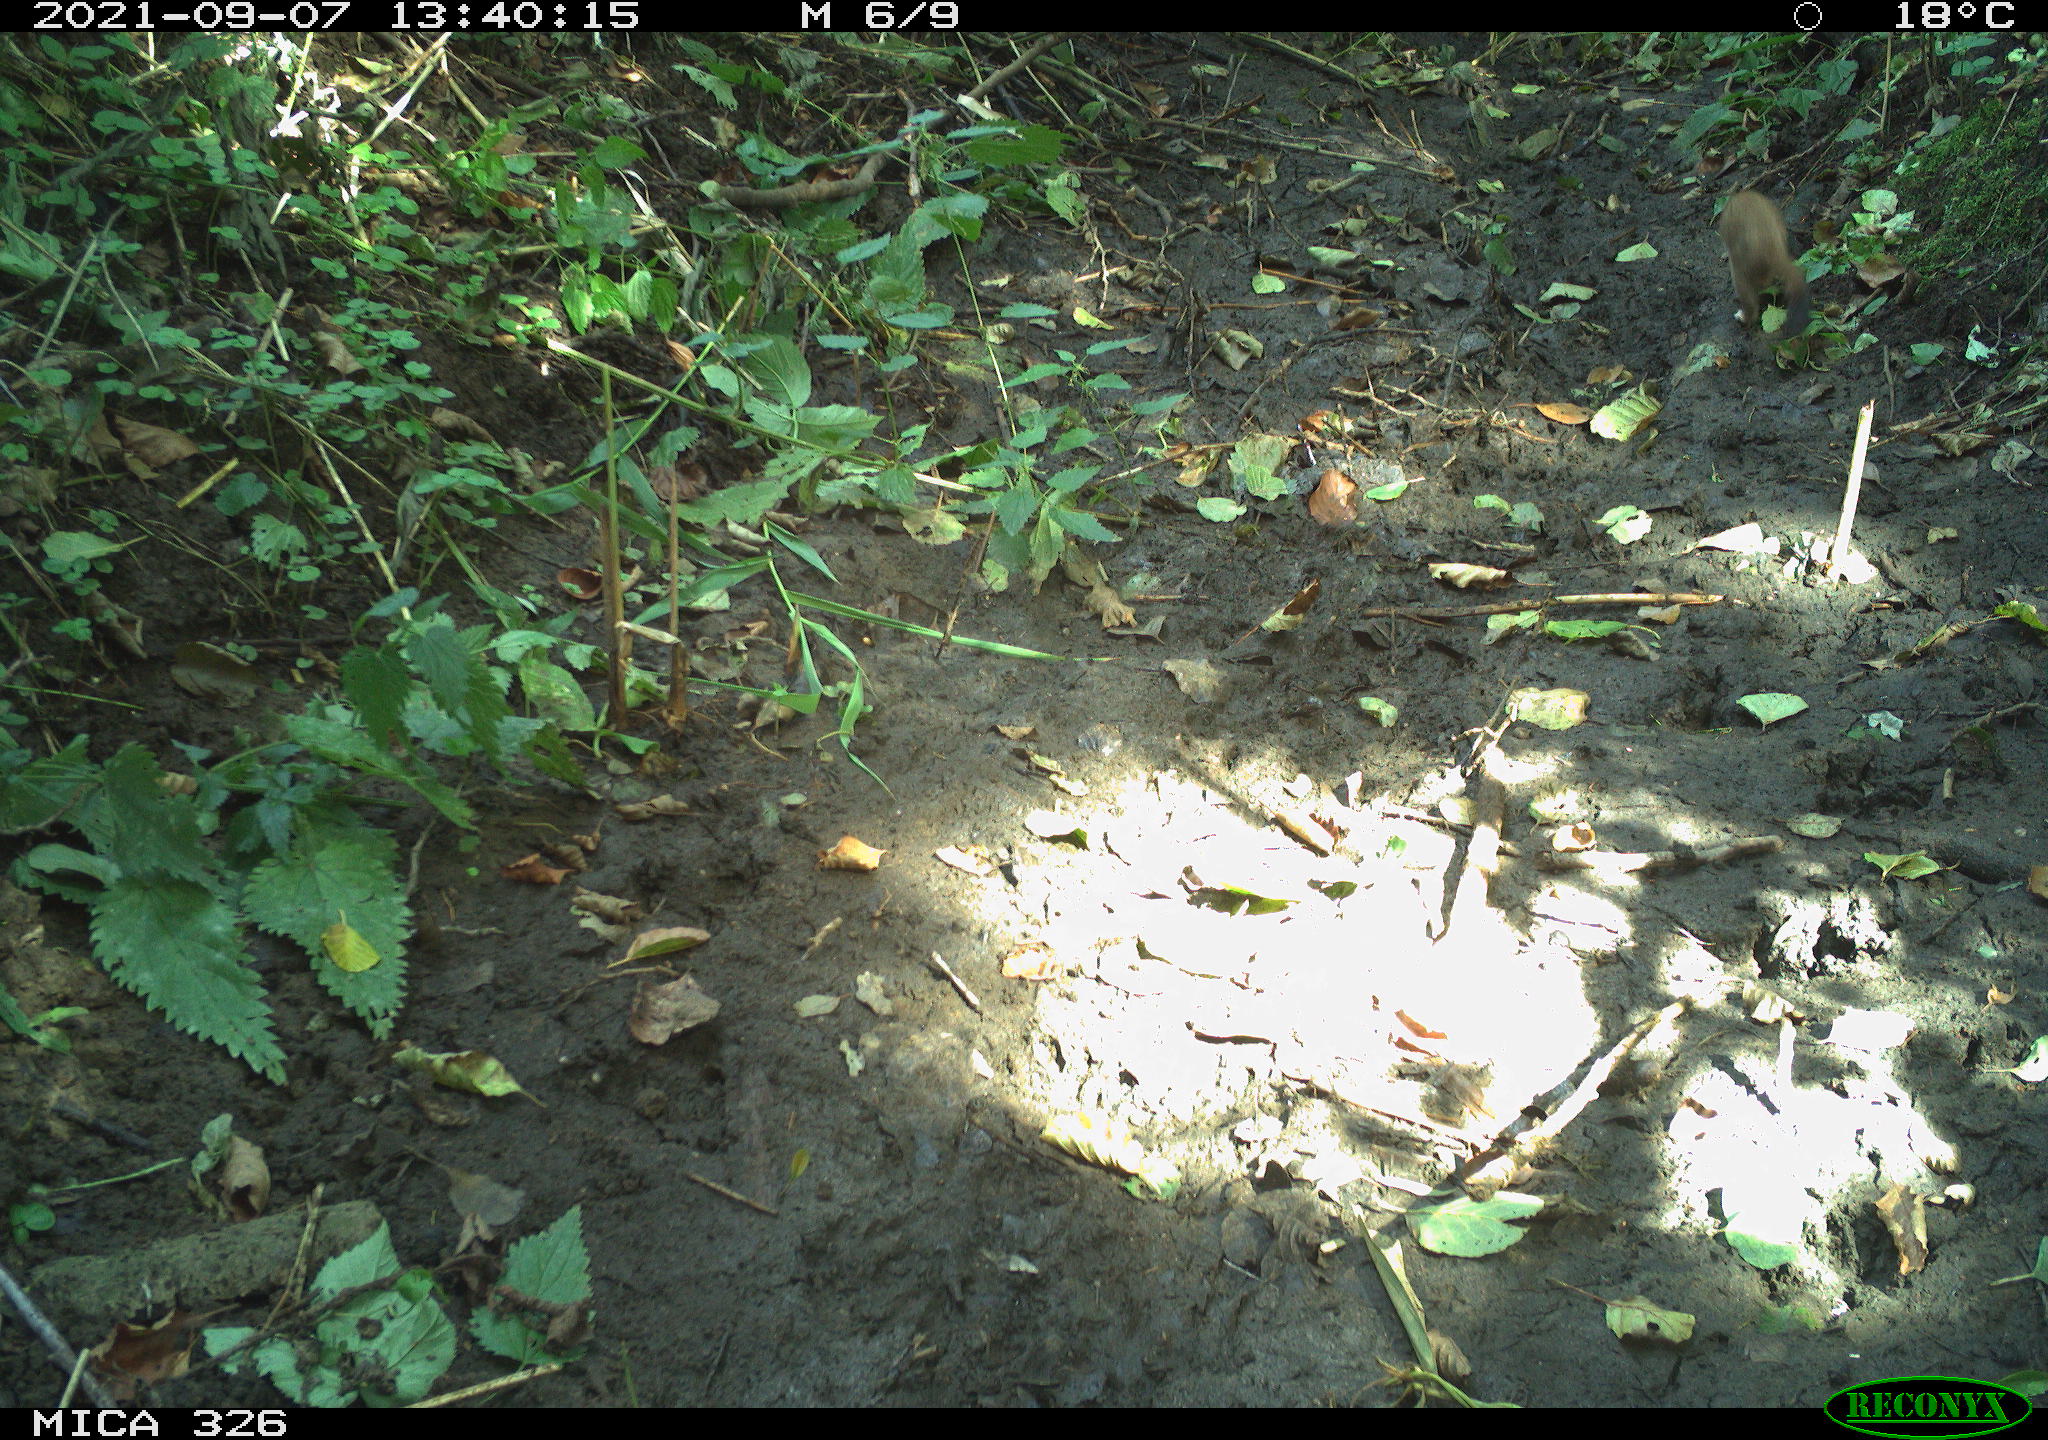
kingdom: Animalia
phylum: Chordata
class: Mammalia
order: Carnivora
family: Mustelidae
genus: Mustela
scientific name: Mustela erminea
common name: Stoat
